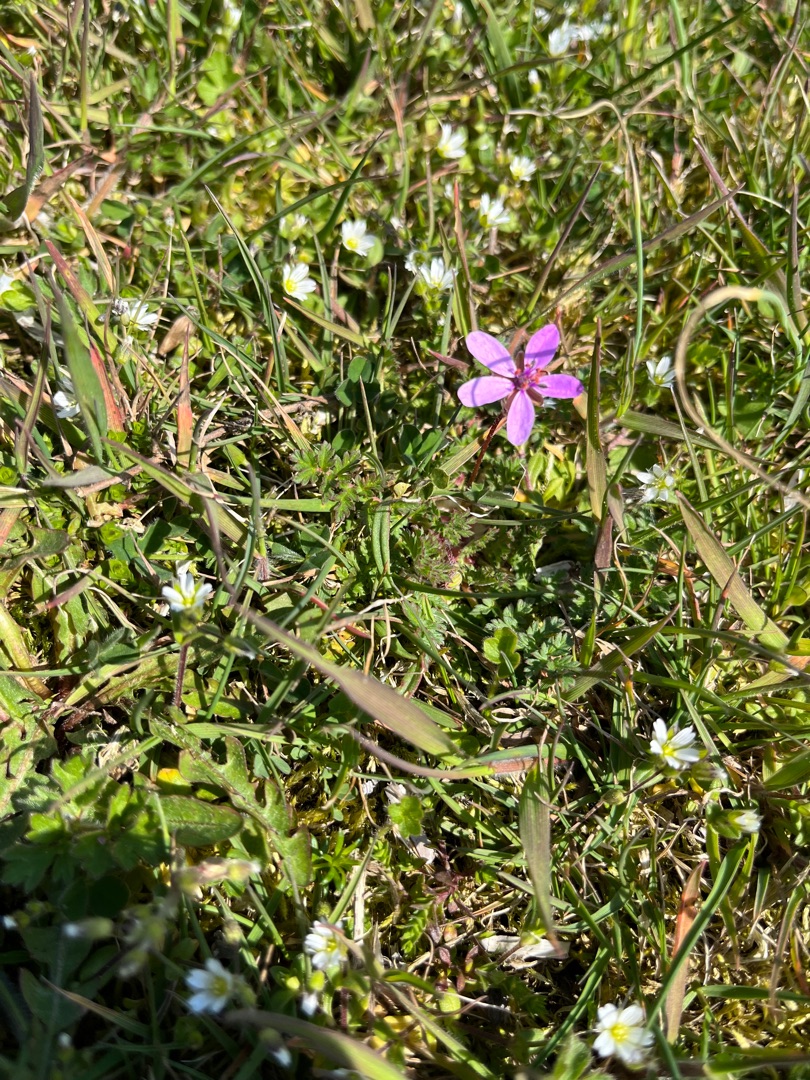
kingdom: Plantae
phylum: Tracheophyta
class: Magnoliopsida
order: Geraniales
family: Geraniaceae
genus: Erodium
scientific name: Erodium cicutarium
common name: Hejrenæb
